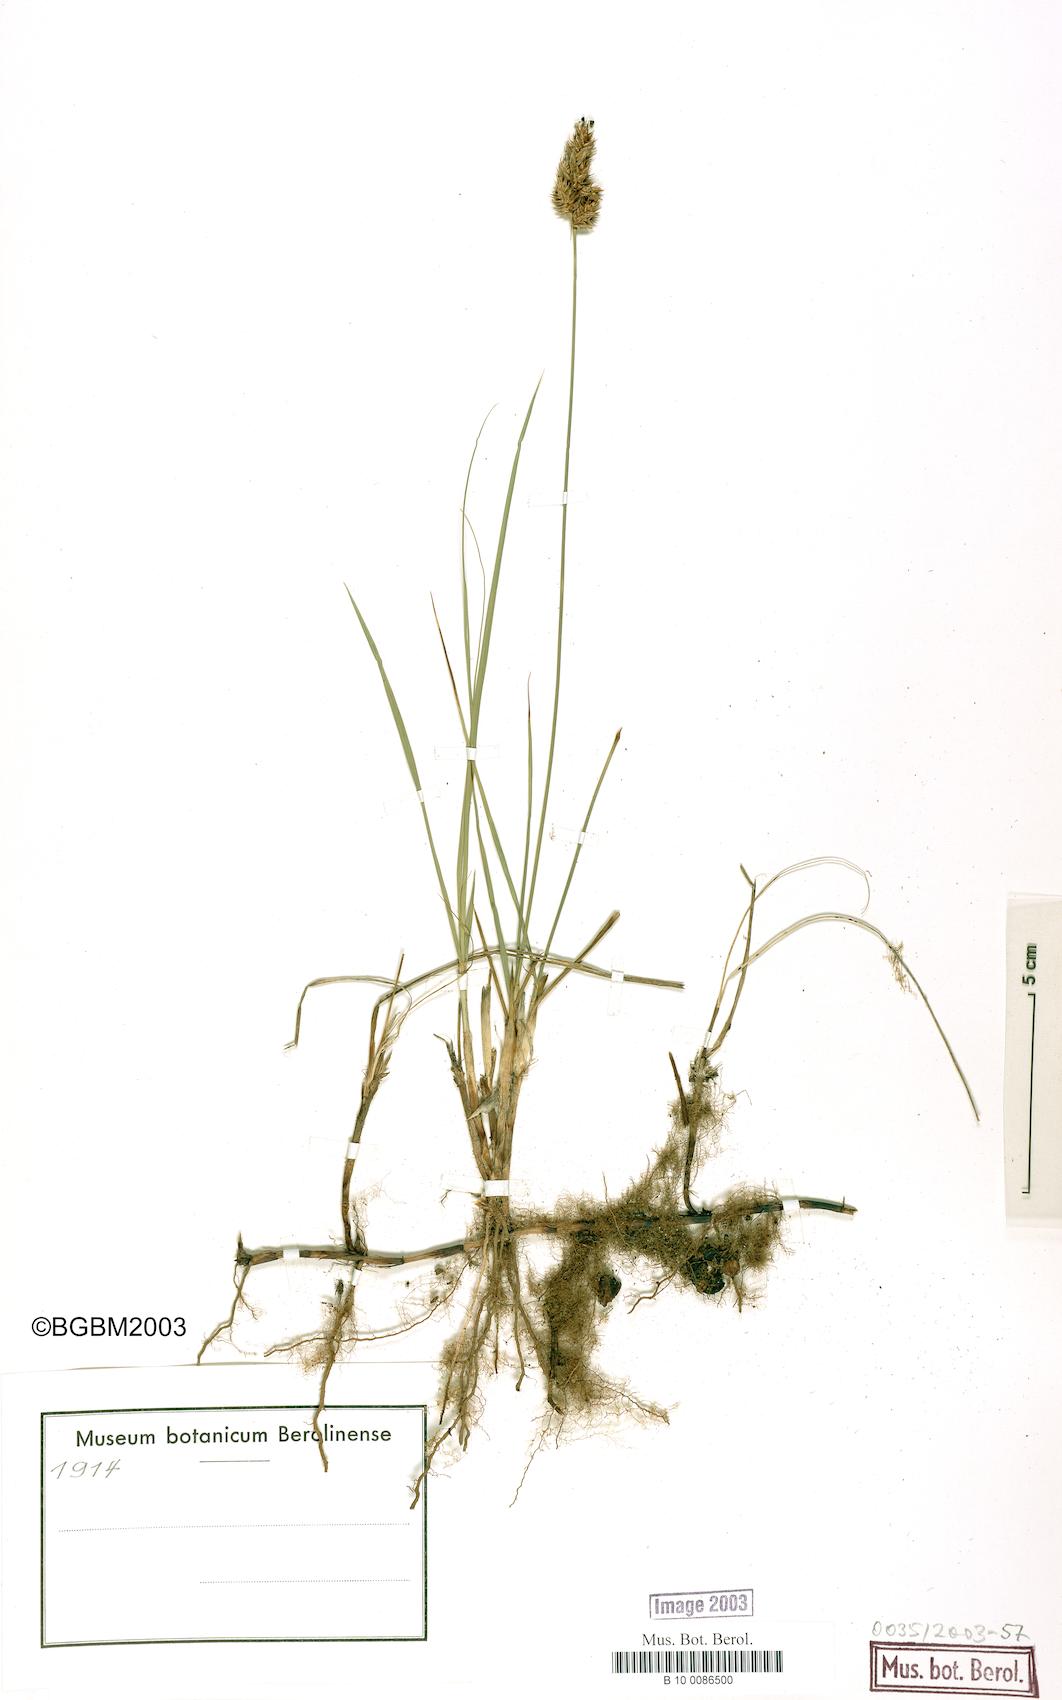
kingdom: Plantae
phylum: Tracheophyta
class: Liliopsida
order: Poales
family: Cyperaceae
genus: Carex
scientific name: Carex colchica
